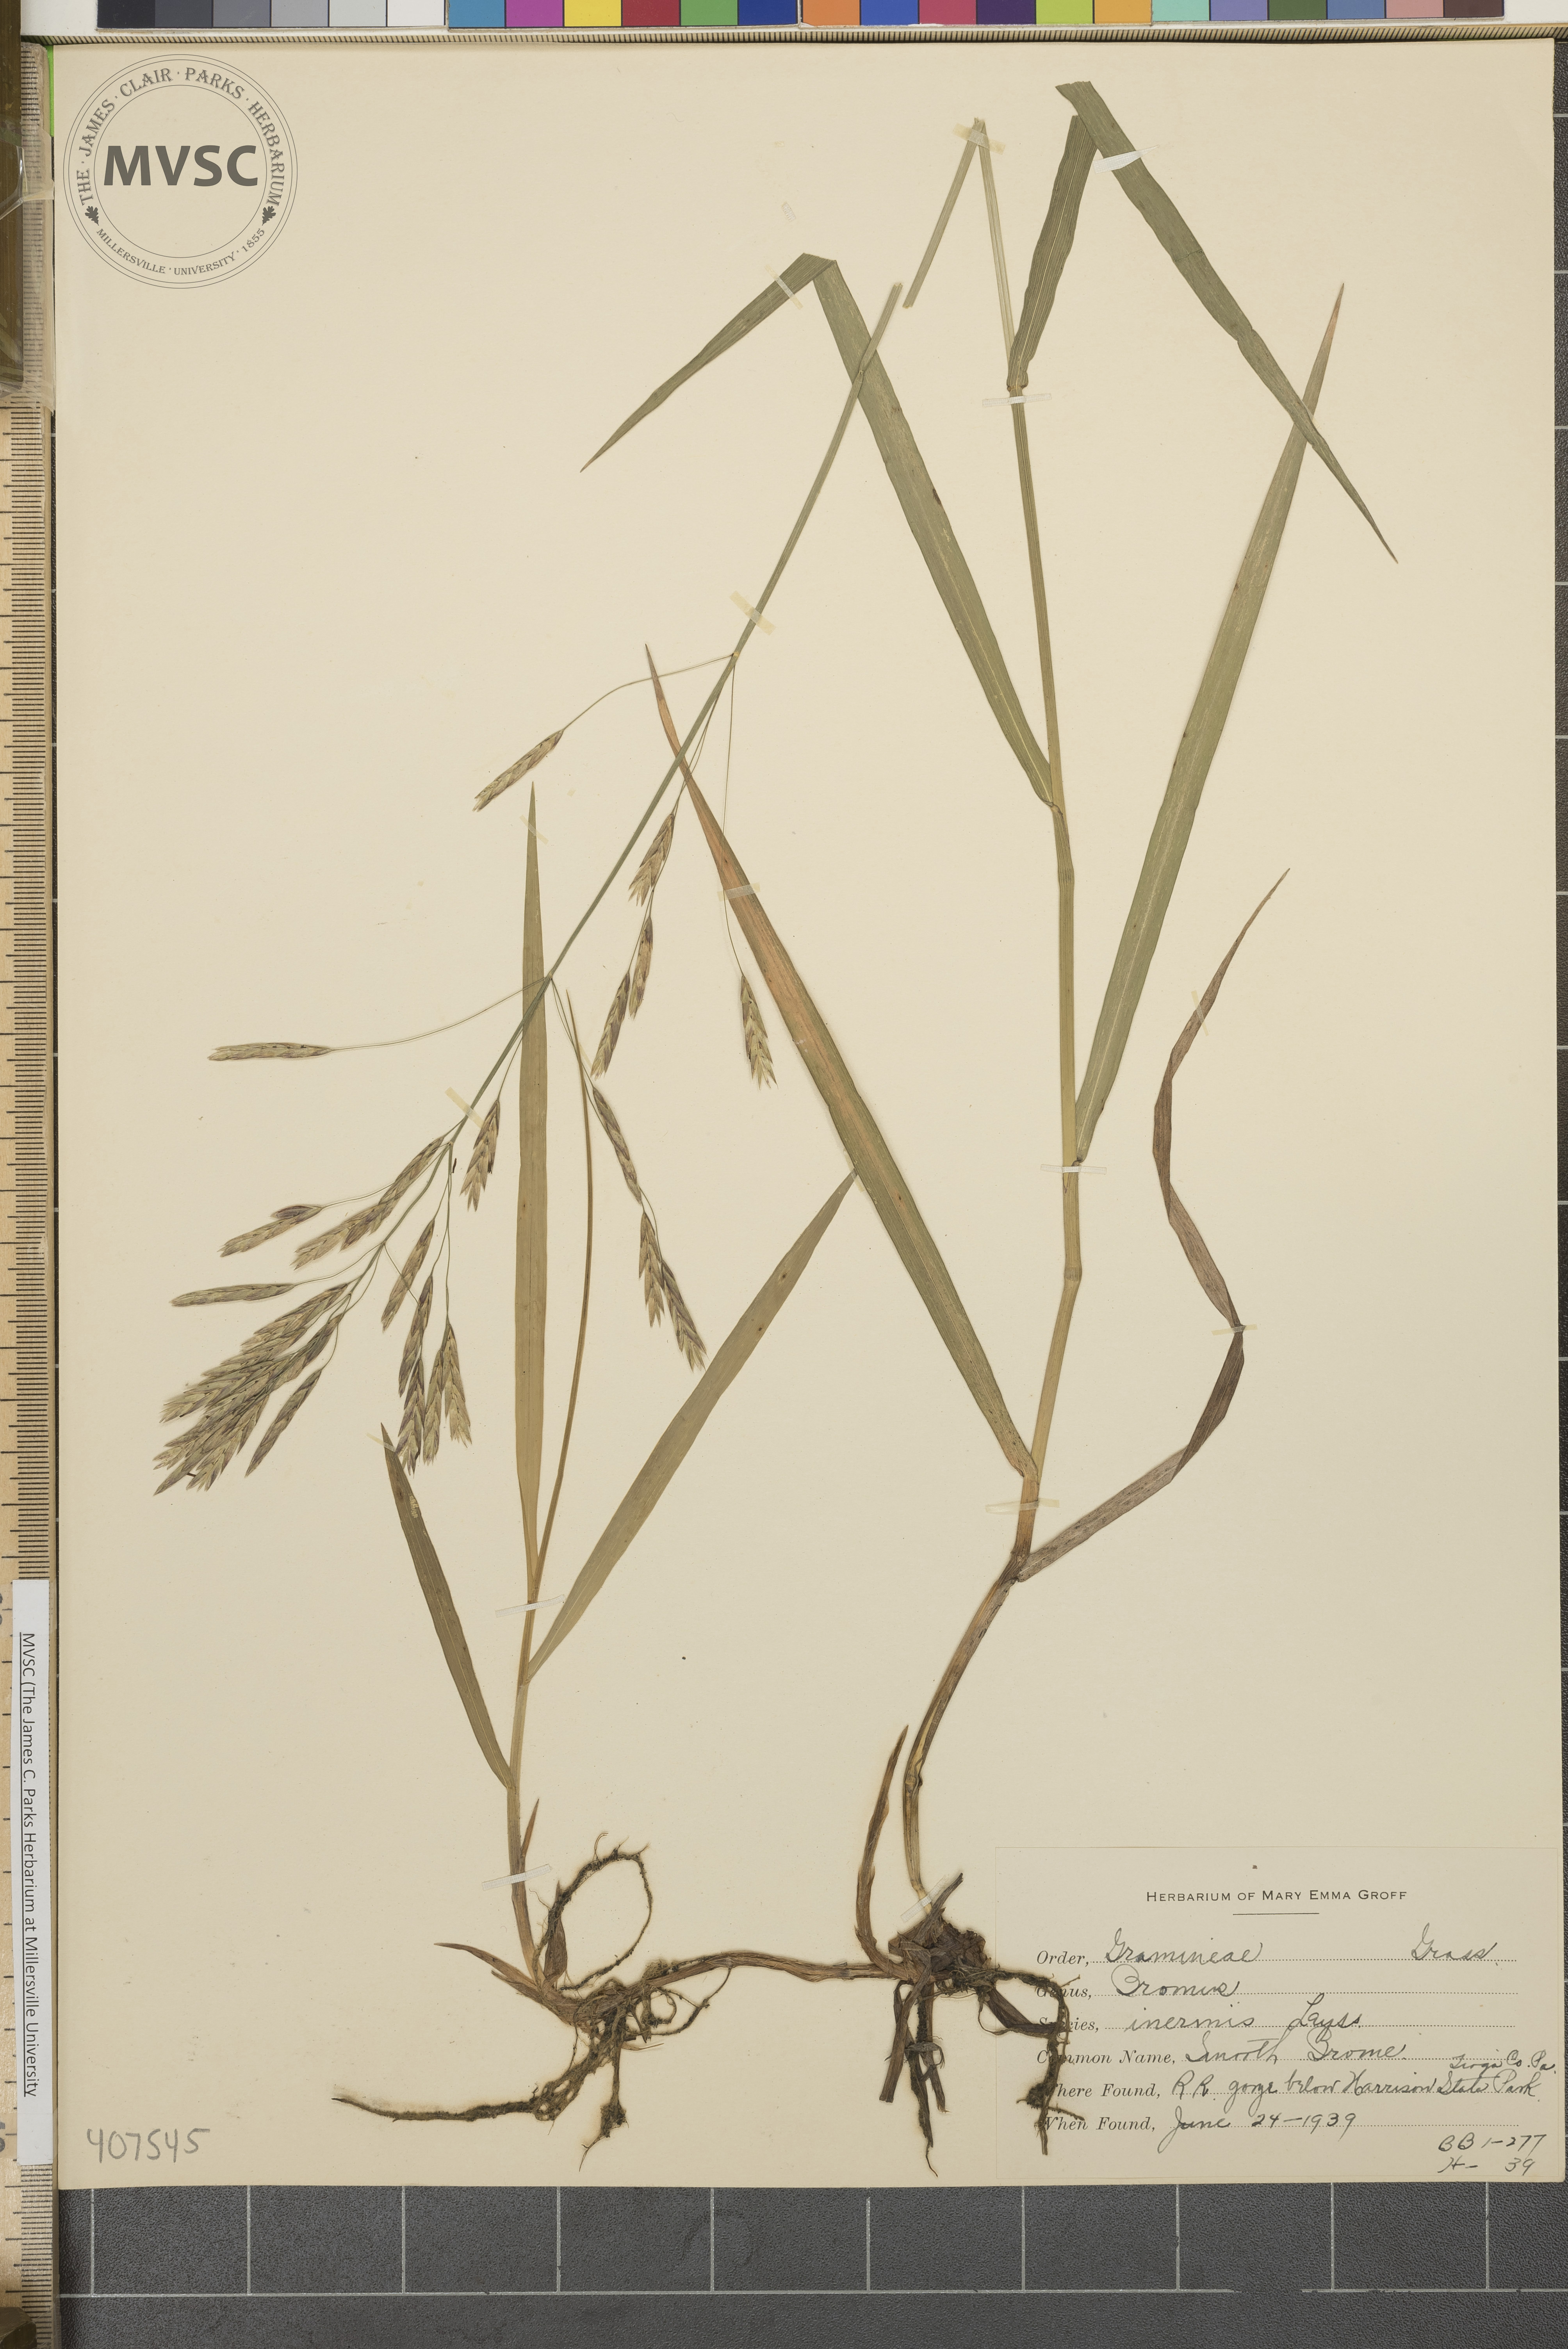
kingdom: Plantae
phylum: Tracheophyta
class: Liliopsida
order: Poales
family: Poaceae
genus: Bromus
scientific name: Bromus inermis
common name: Smooth brome
